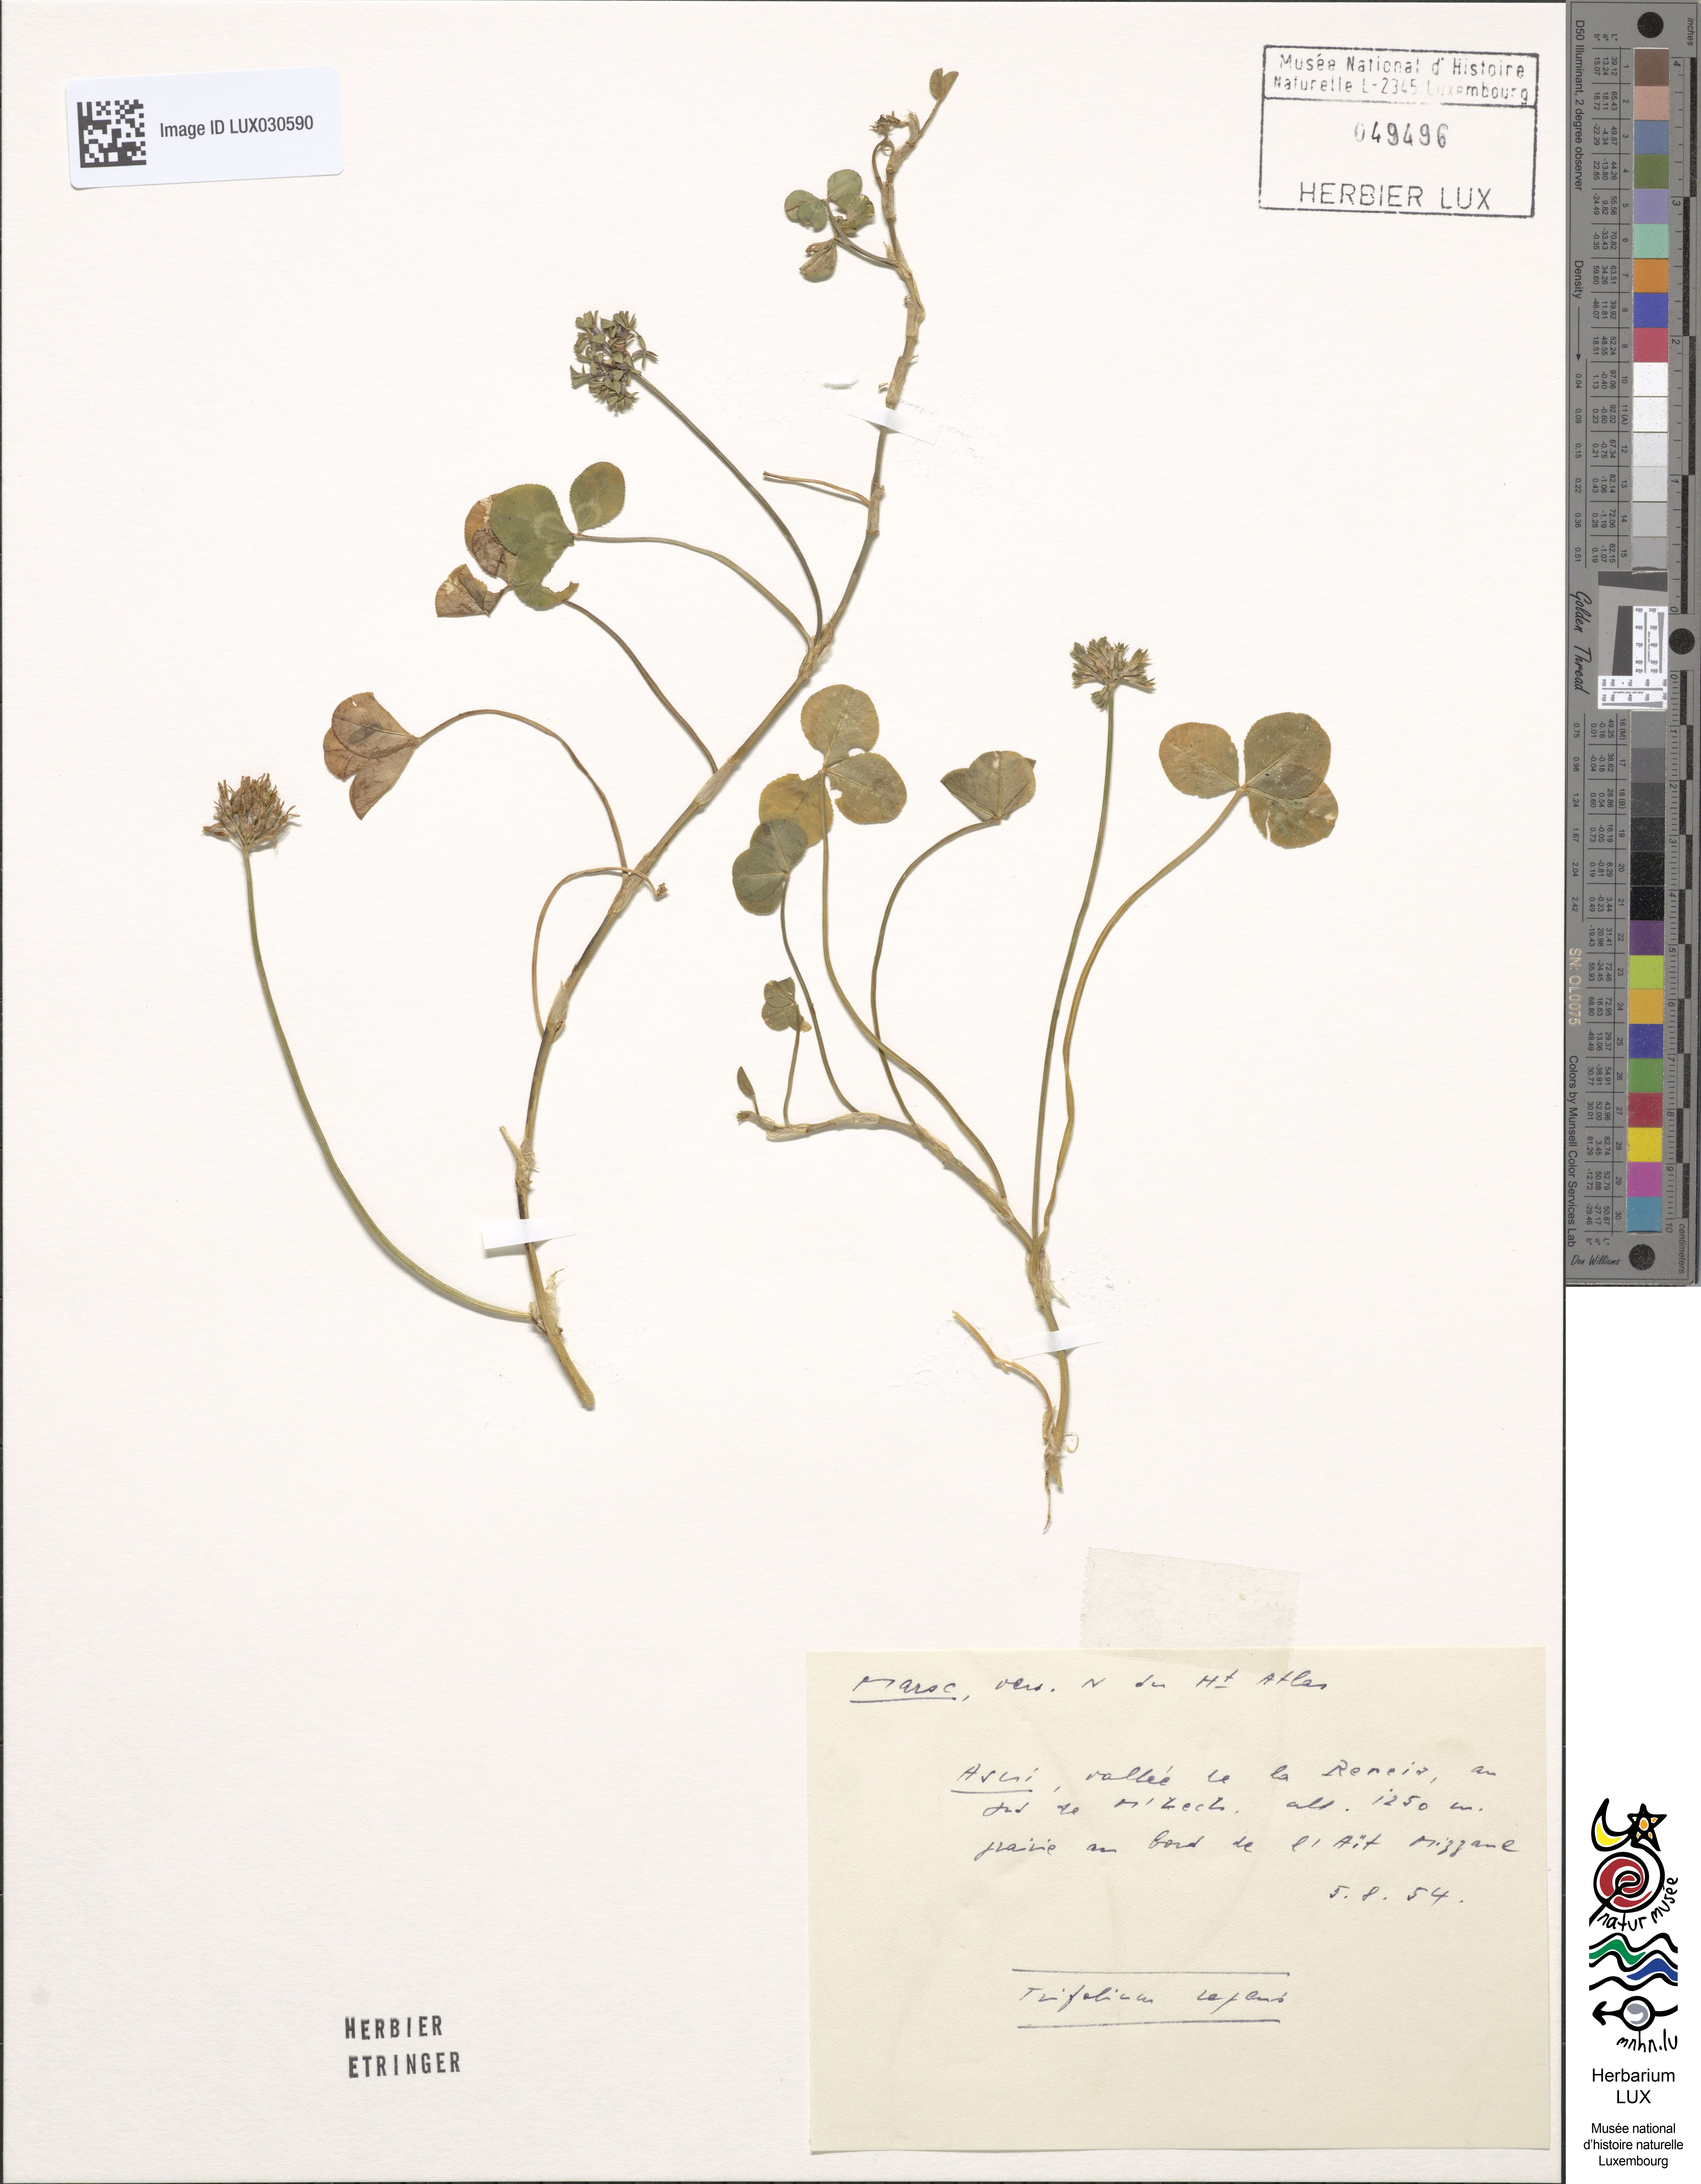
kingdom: Plantae
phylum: Tracheophyta
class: Magnoliopsida
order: Fabales
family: Fabaceae
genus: Trifolium
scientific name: Trifolium repens
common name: White clover
